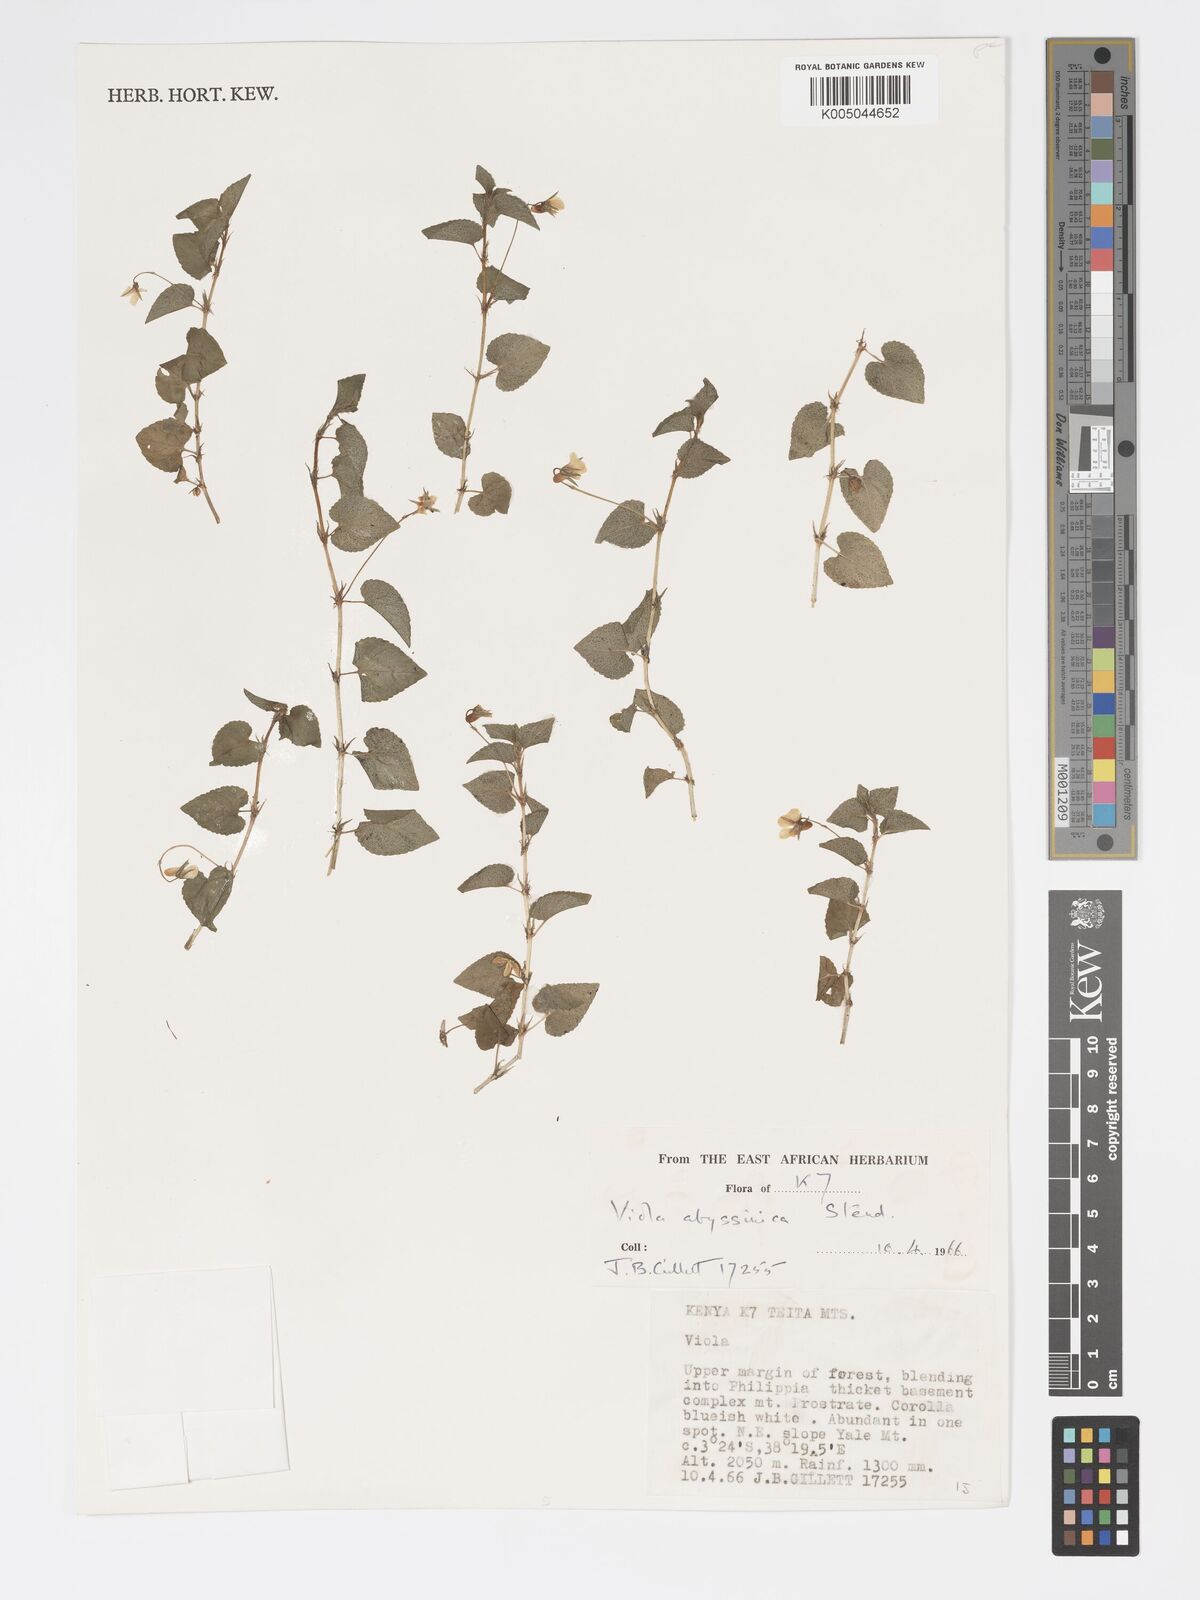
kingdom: Plantae
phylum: Tracheophyta
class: Magnoliopsida
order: Malpighiales
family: Violaceae
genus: Viola
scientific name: Viola abyssinica
